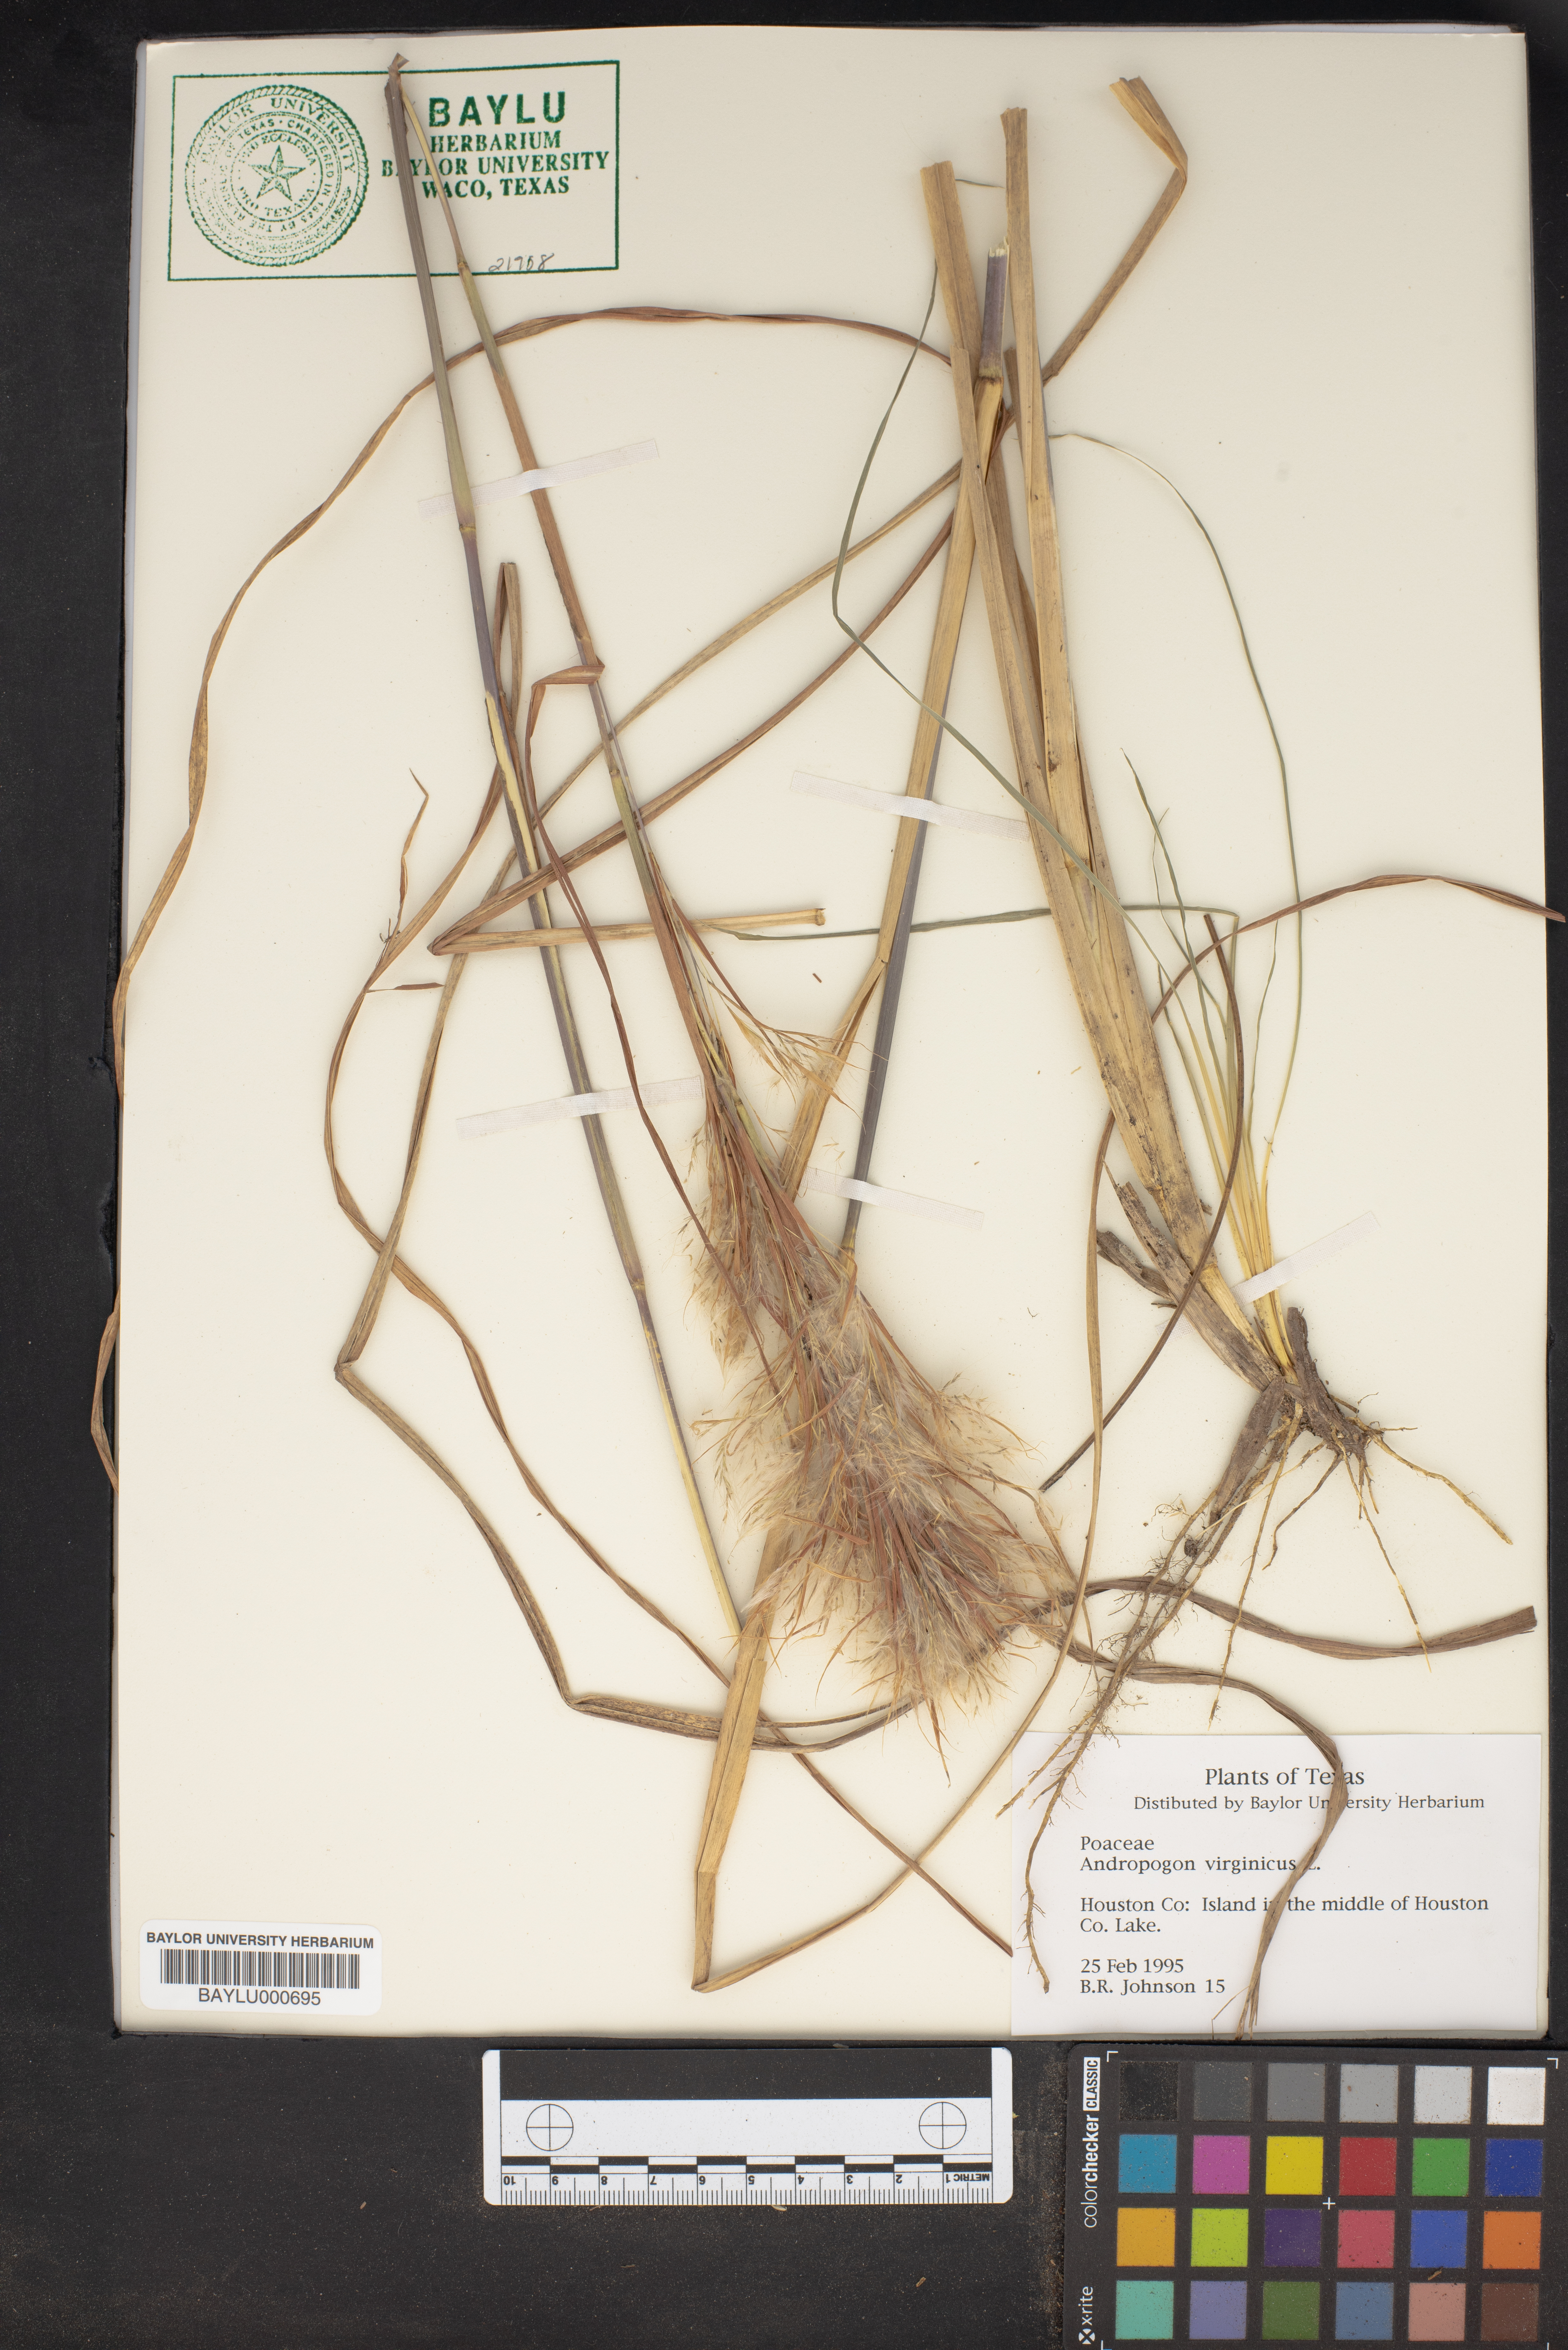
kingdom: Plantae
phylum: Tracheophyta
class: Liliopsida
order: Poales
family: Poaceae
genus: Andropogon
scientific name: Andropogon virginicus
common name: Broomsedge bluestem
